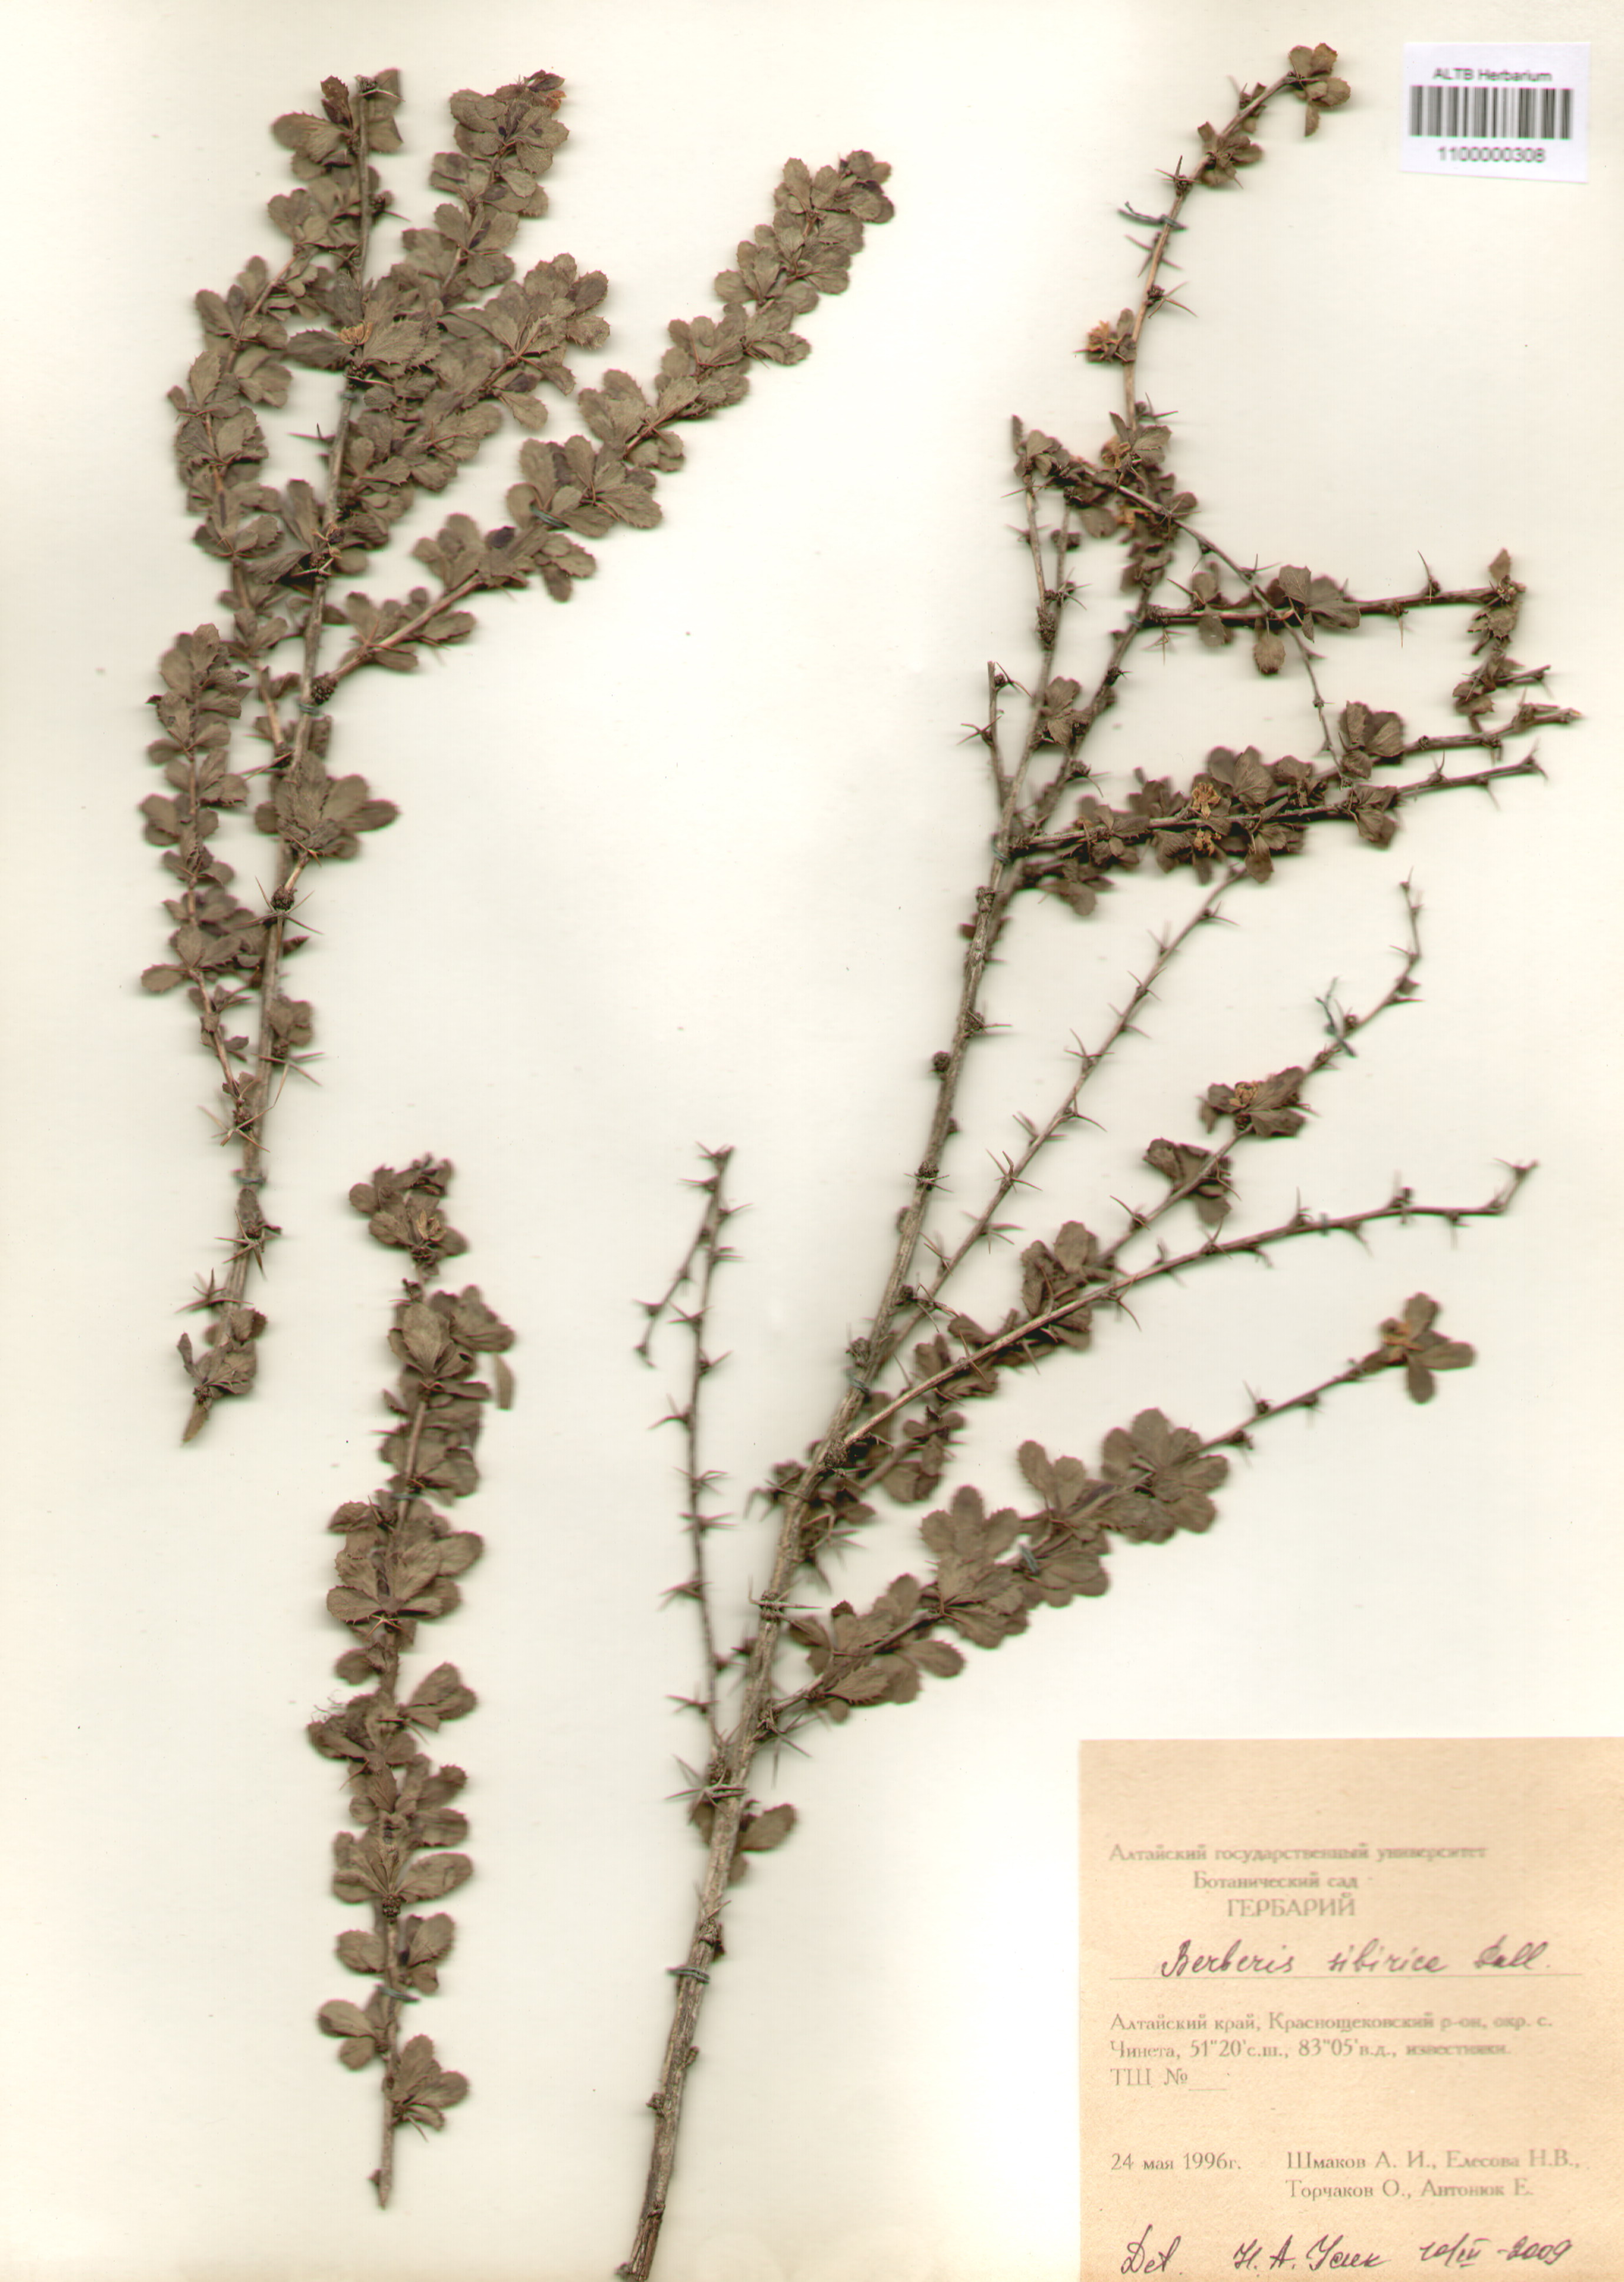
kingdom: Plantae
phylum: Tracheophyta
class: Magnoliopsida
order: Ranunculales
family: Berberidaceae
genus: Berberis
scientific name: Berberis sibirica
